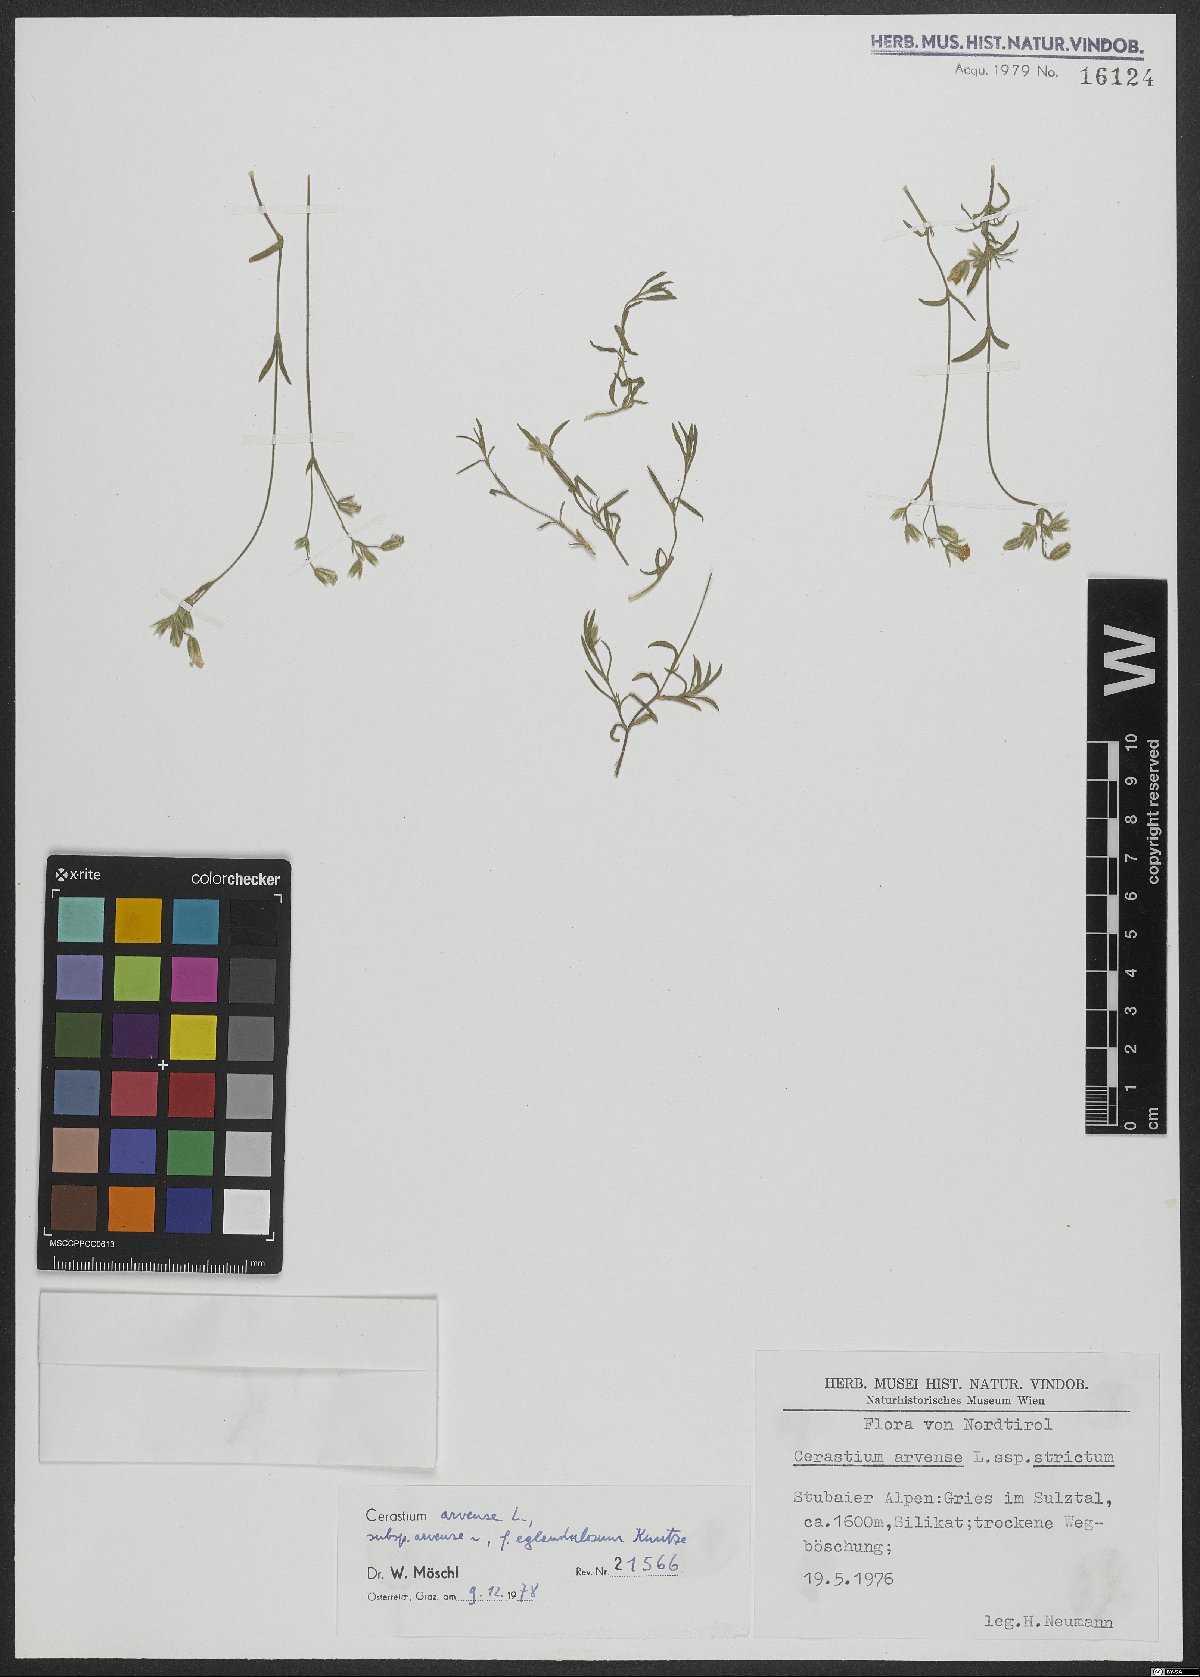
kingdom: Plantae
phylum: Tracheophyta
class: Magnoliopsida
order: Caryophyllales
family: Caryophyllaceae
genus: Cerastium
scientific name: Cerastium arvense
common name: Field mouse-ear
